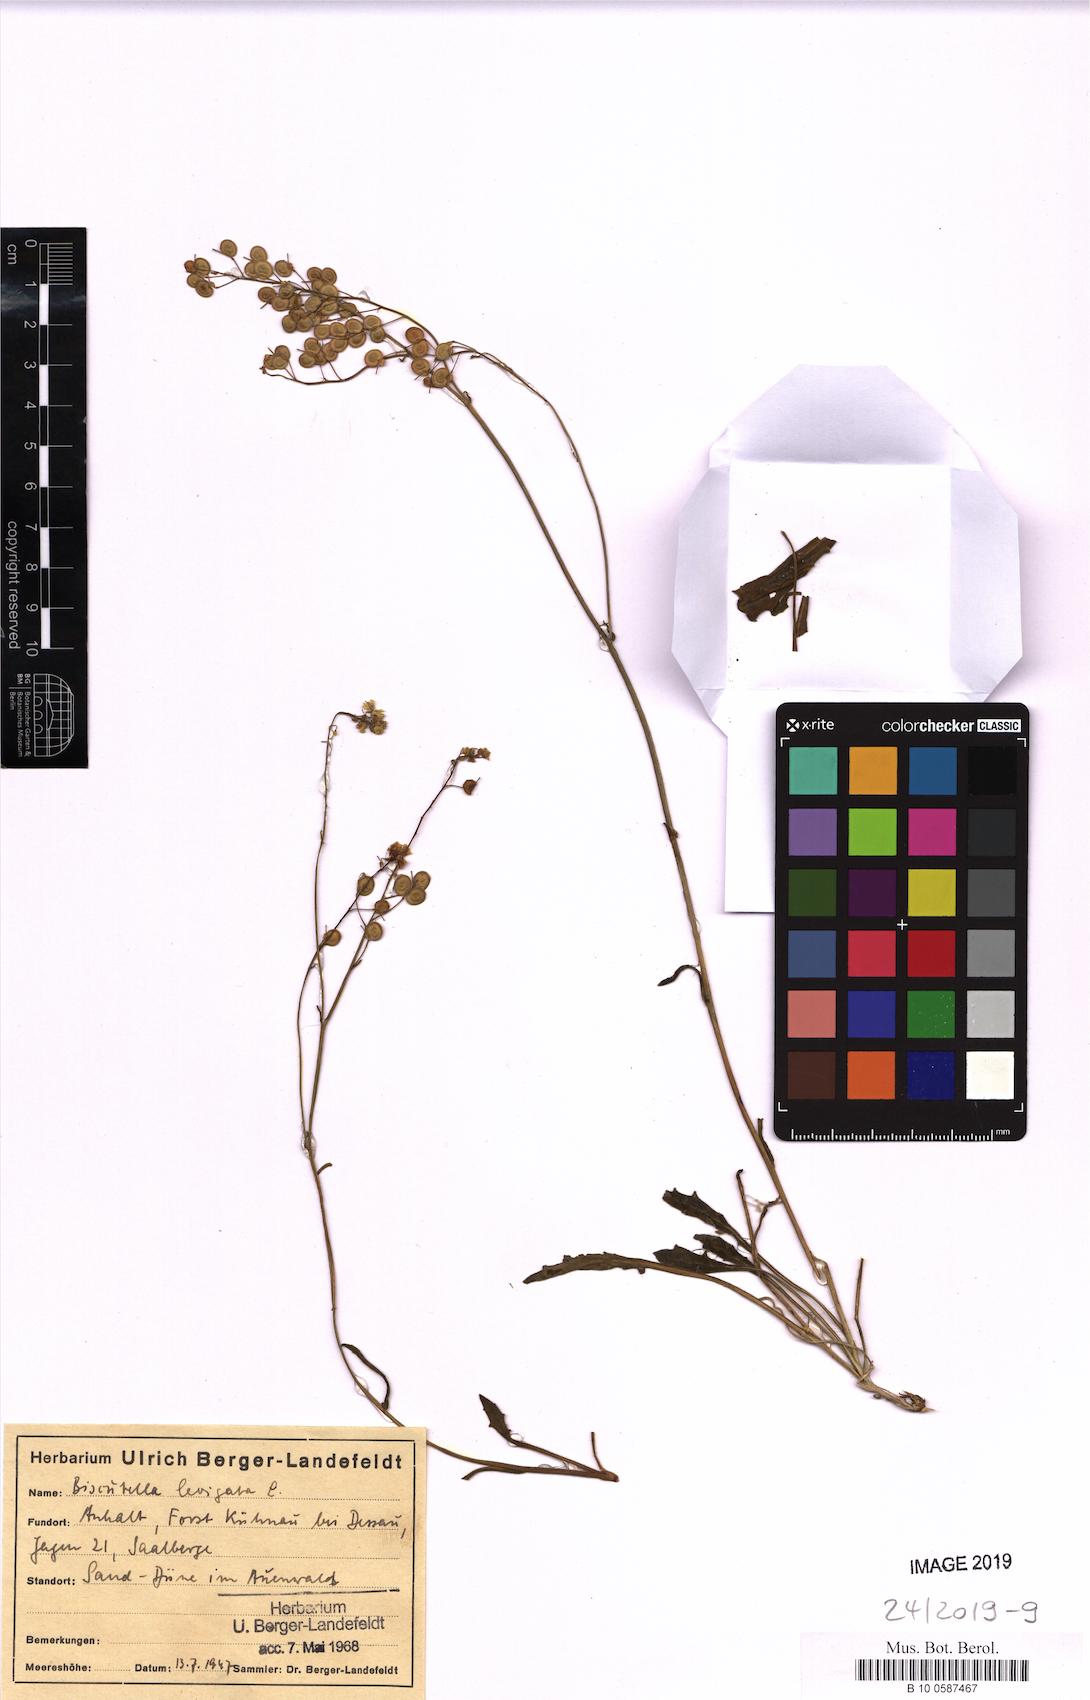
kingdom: Plantae
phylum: Tracheophyta
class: Magnoliopsida
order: Brassicales
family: Brassicaceae
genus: Biscutella
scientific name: Biscutella laevigata
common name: Buckler mustard
